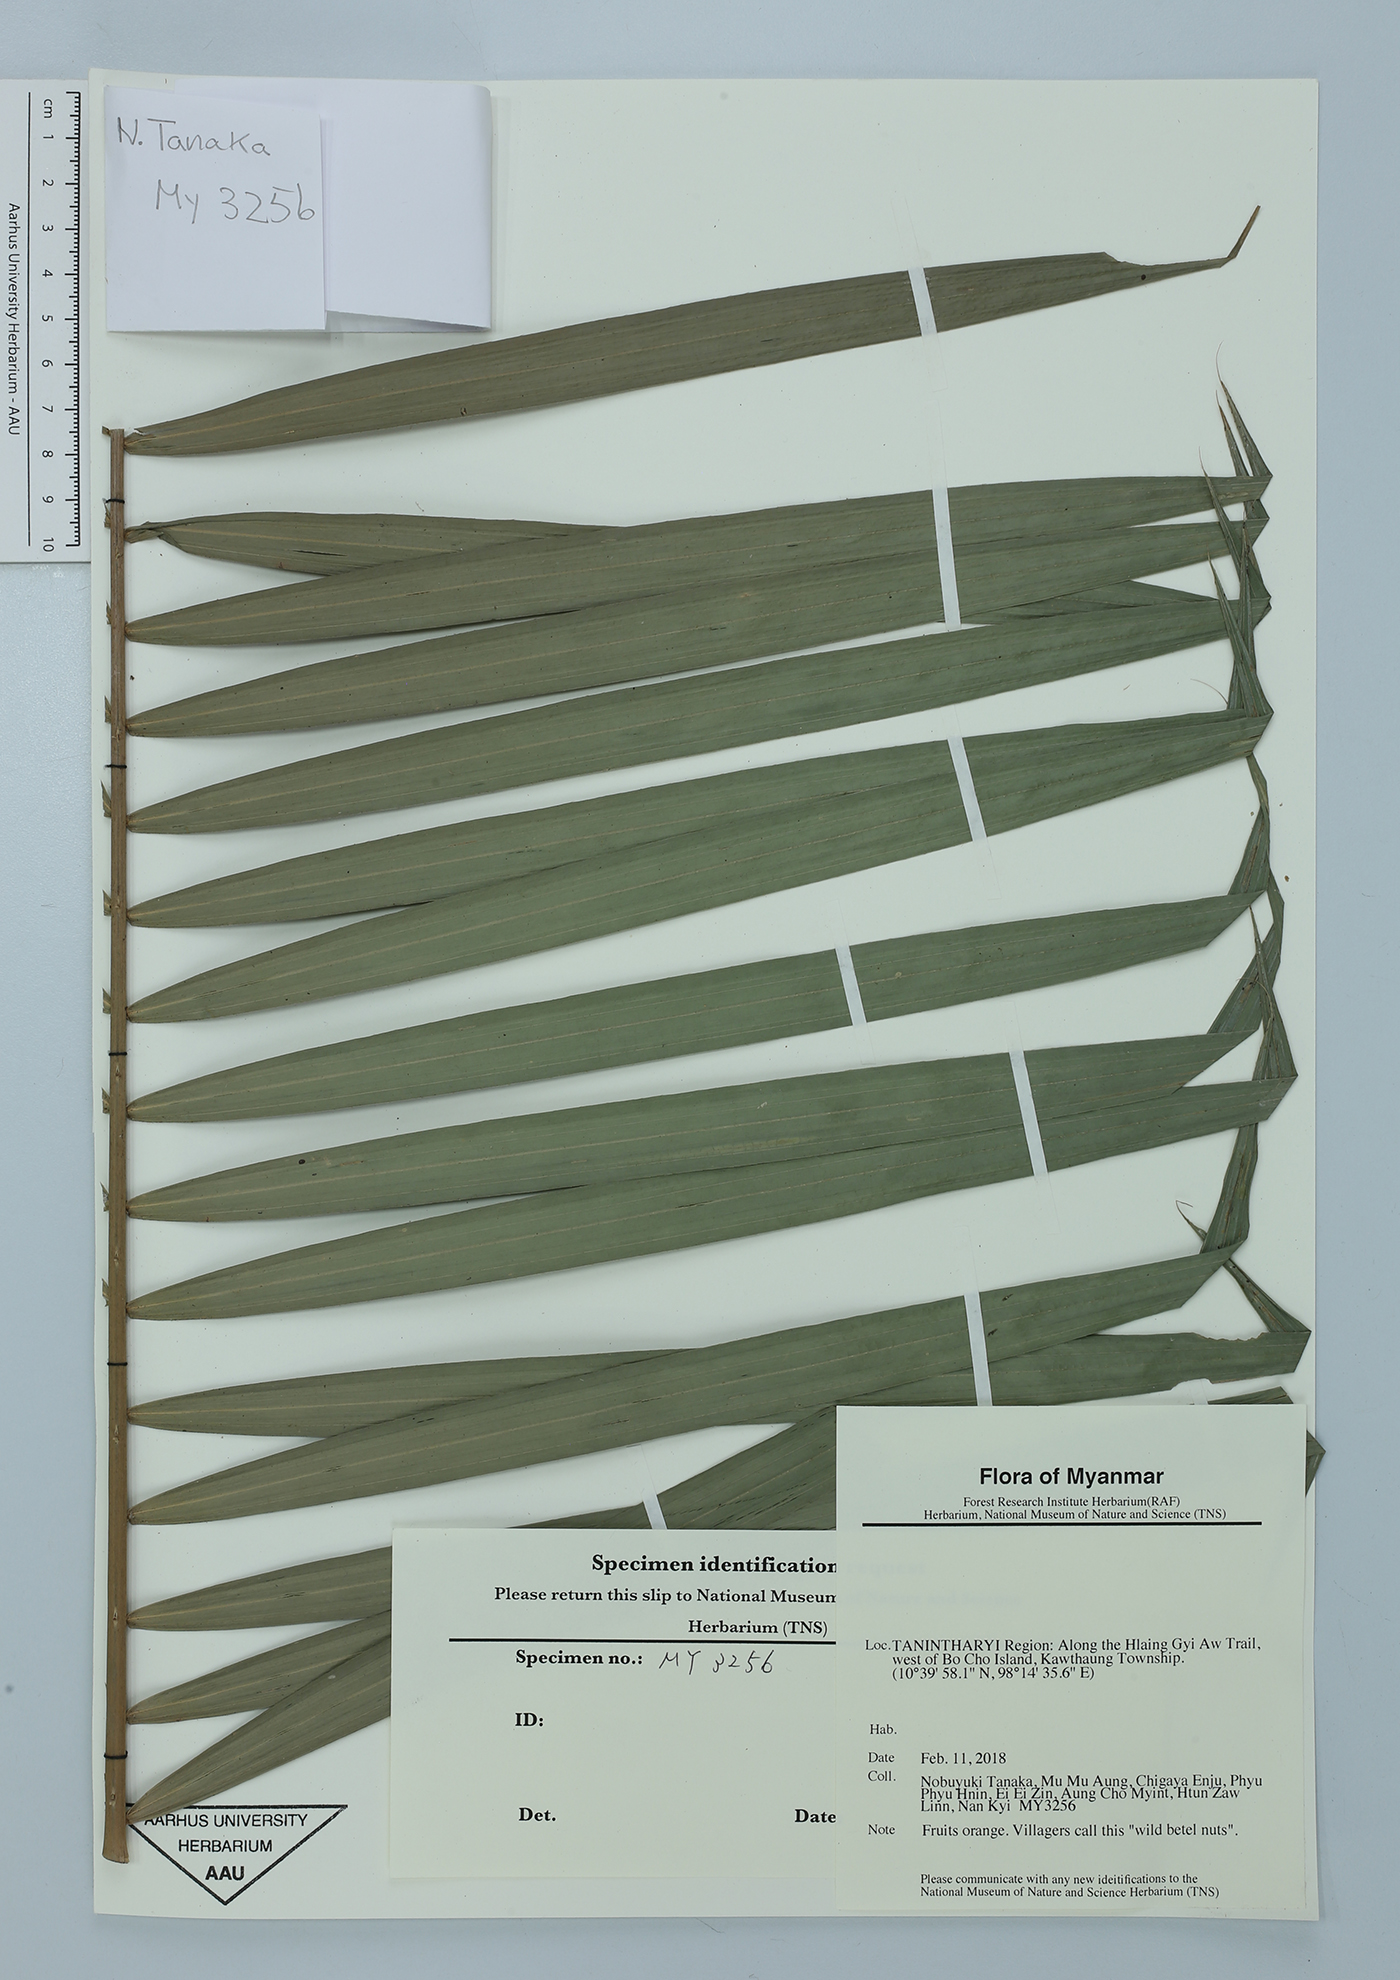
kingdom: Plantae
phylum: Tracheophyta
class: Liliopsida
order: Arecales
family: Arecaceae
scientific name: Arecaceae
